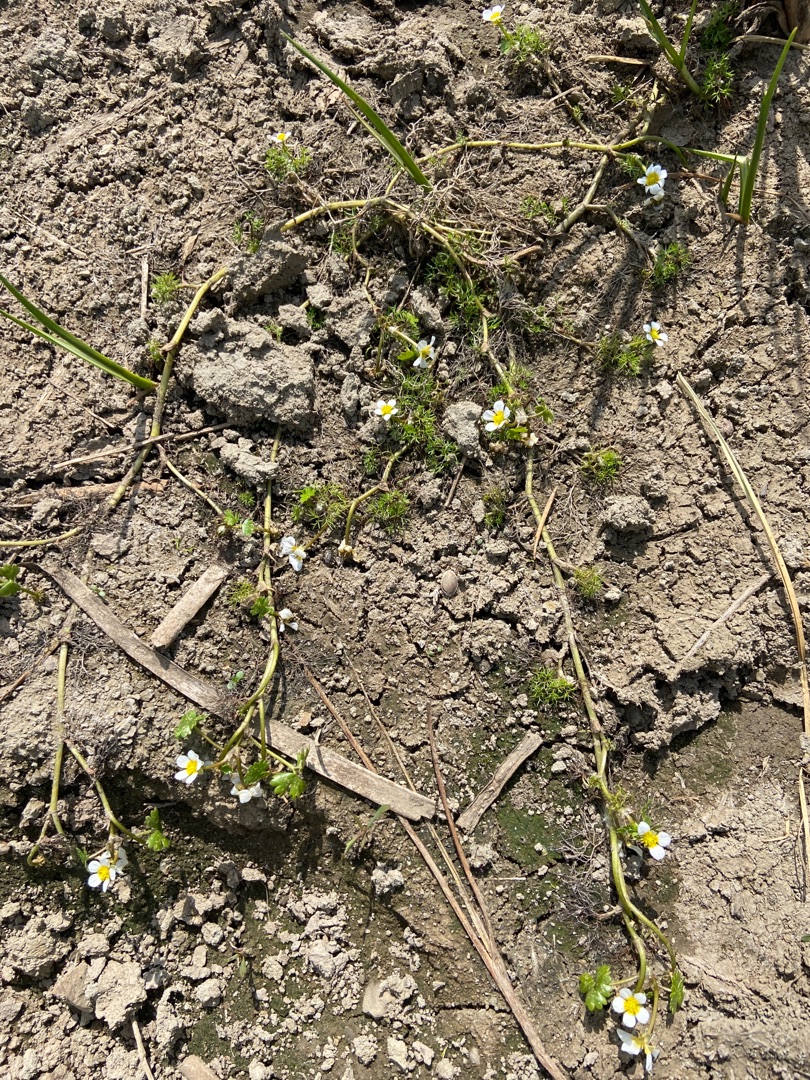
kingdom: Plantae
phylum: Tracheophyta
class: Magnoliopsida
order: Ranunculales
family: Ranunculaceae
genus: Ranunculus
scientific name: Ranunculus aquatilis
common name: Almindelig vandranunkel
